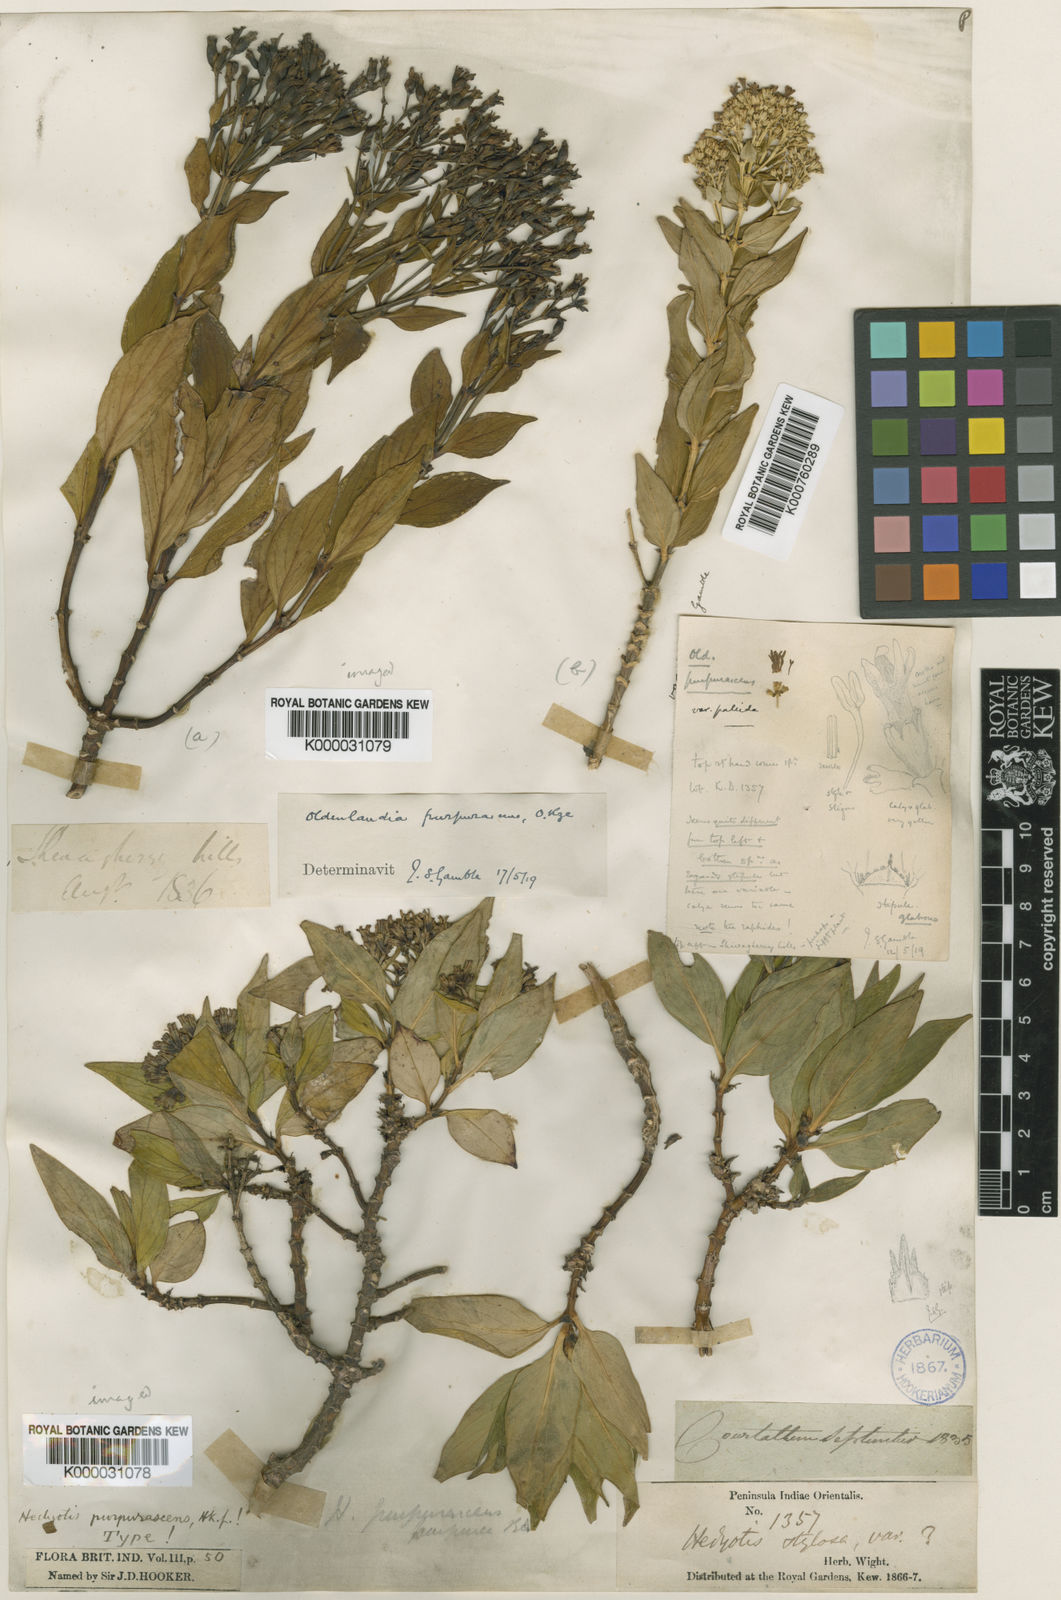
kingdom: Plantae
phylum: Tracheophyta
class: Magnoliopsida
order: Gentianales
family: Rubiaceae
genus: Hedyotis
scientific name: Hedyotis purpurascens
